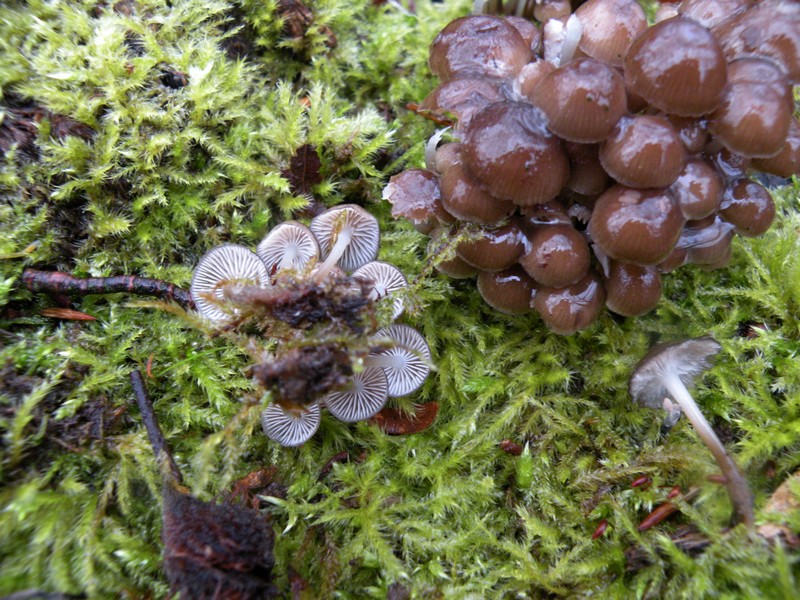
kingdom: Fungi
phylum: Basidiomycota
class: Agaricomycetes
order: Agaricales
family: Mycenaceae
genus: Mycena
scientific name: Mycena tintinnabulum
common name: vinter-huesvamp
